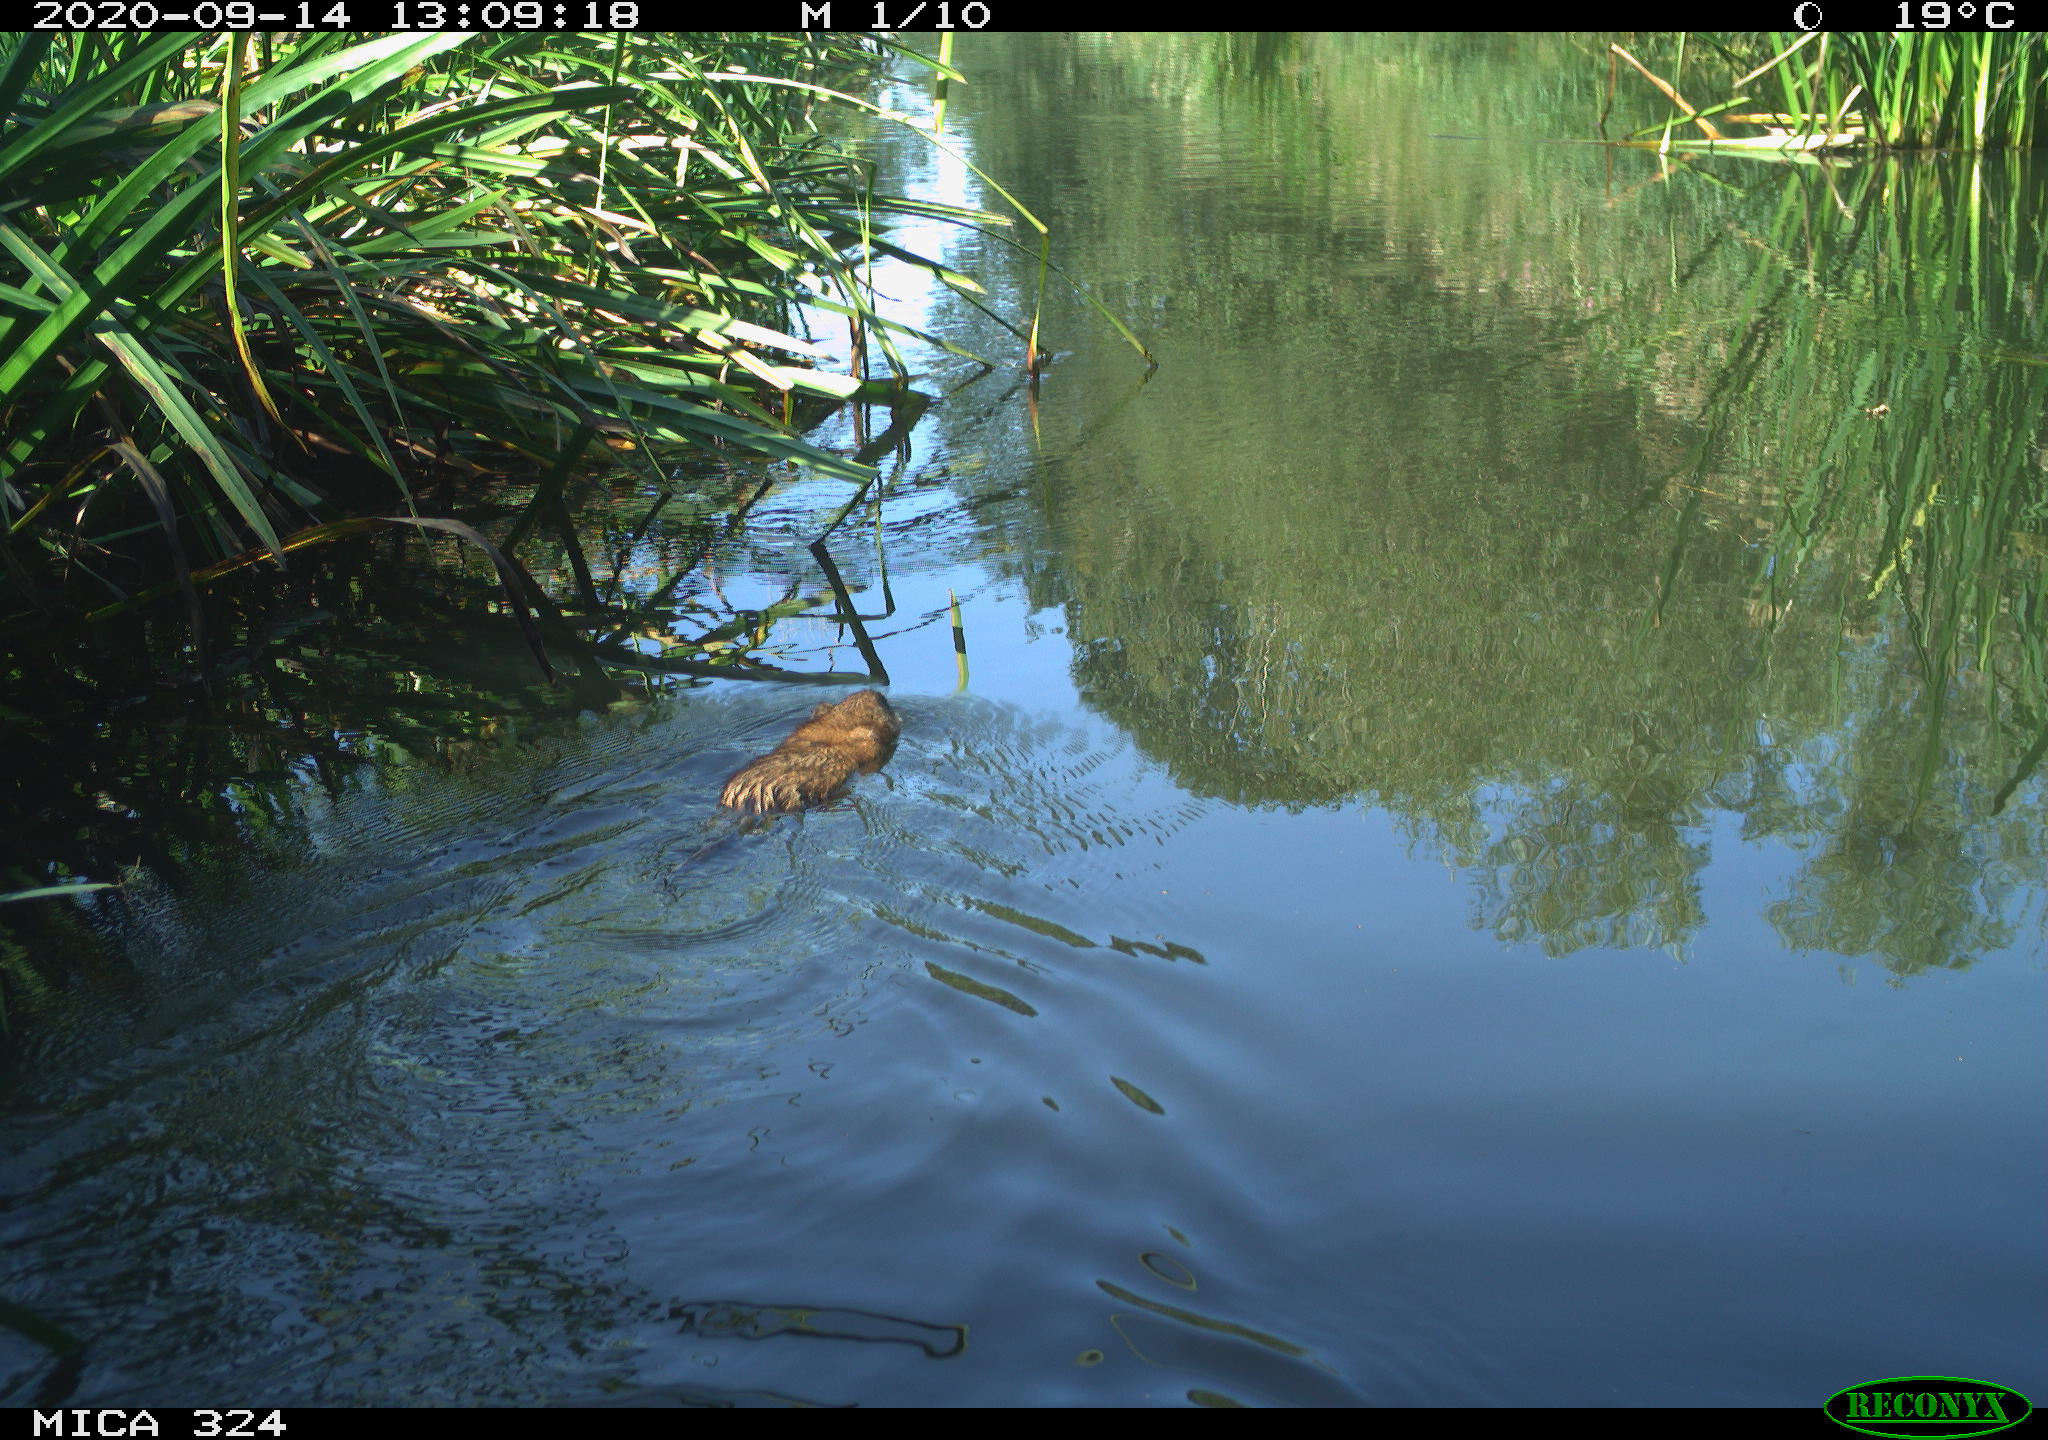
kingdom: Animalia
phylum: Chordata
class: Mammalia
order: Rodentia
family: Cricetidae
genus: Ondatra
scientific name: Ondatra zibethicus
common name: Muskrat
